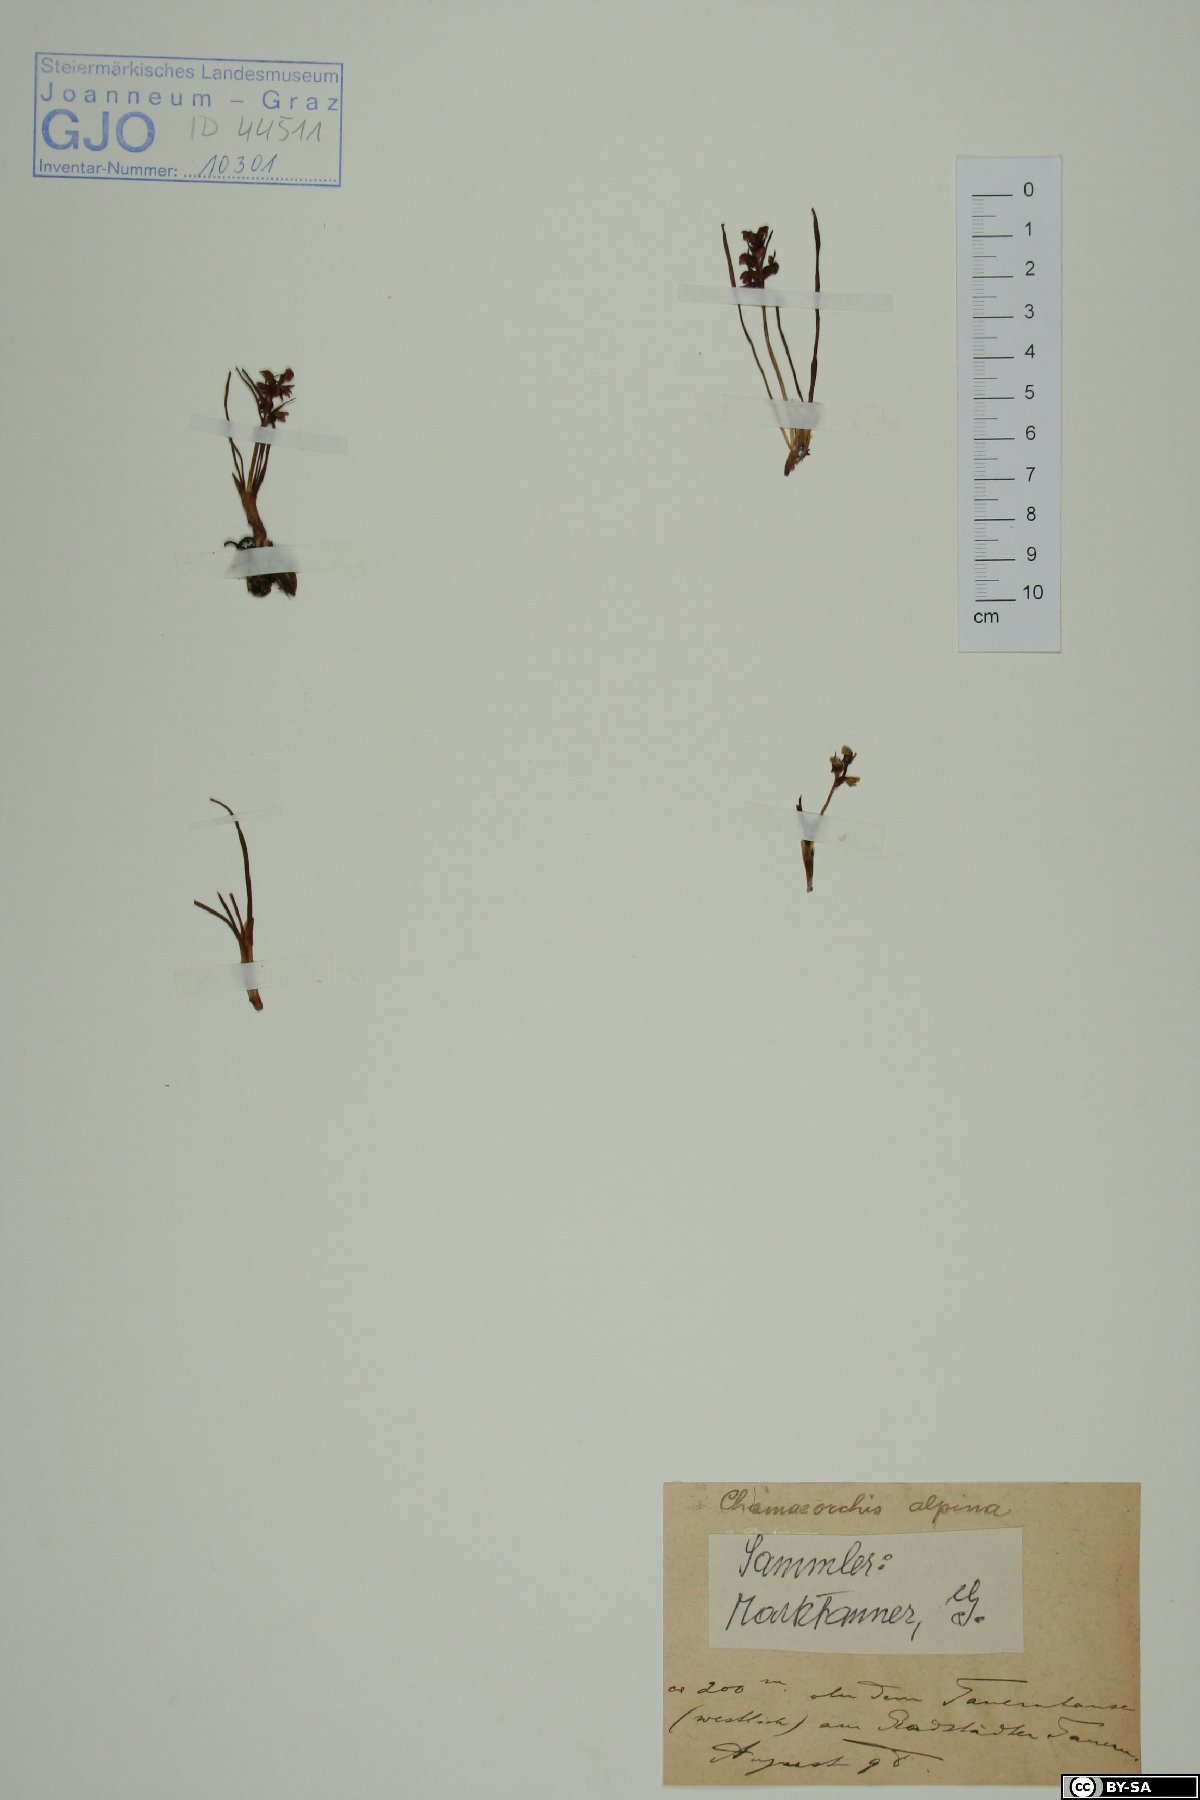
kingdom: Plantae
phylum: Tracheophyta
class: Liliopsida
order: Asparagales
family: Orchidaceae
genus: Chamorchis
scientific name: Chamorchis alpina
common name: Alpine chamorchis
